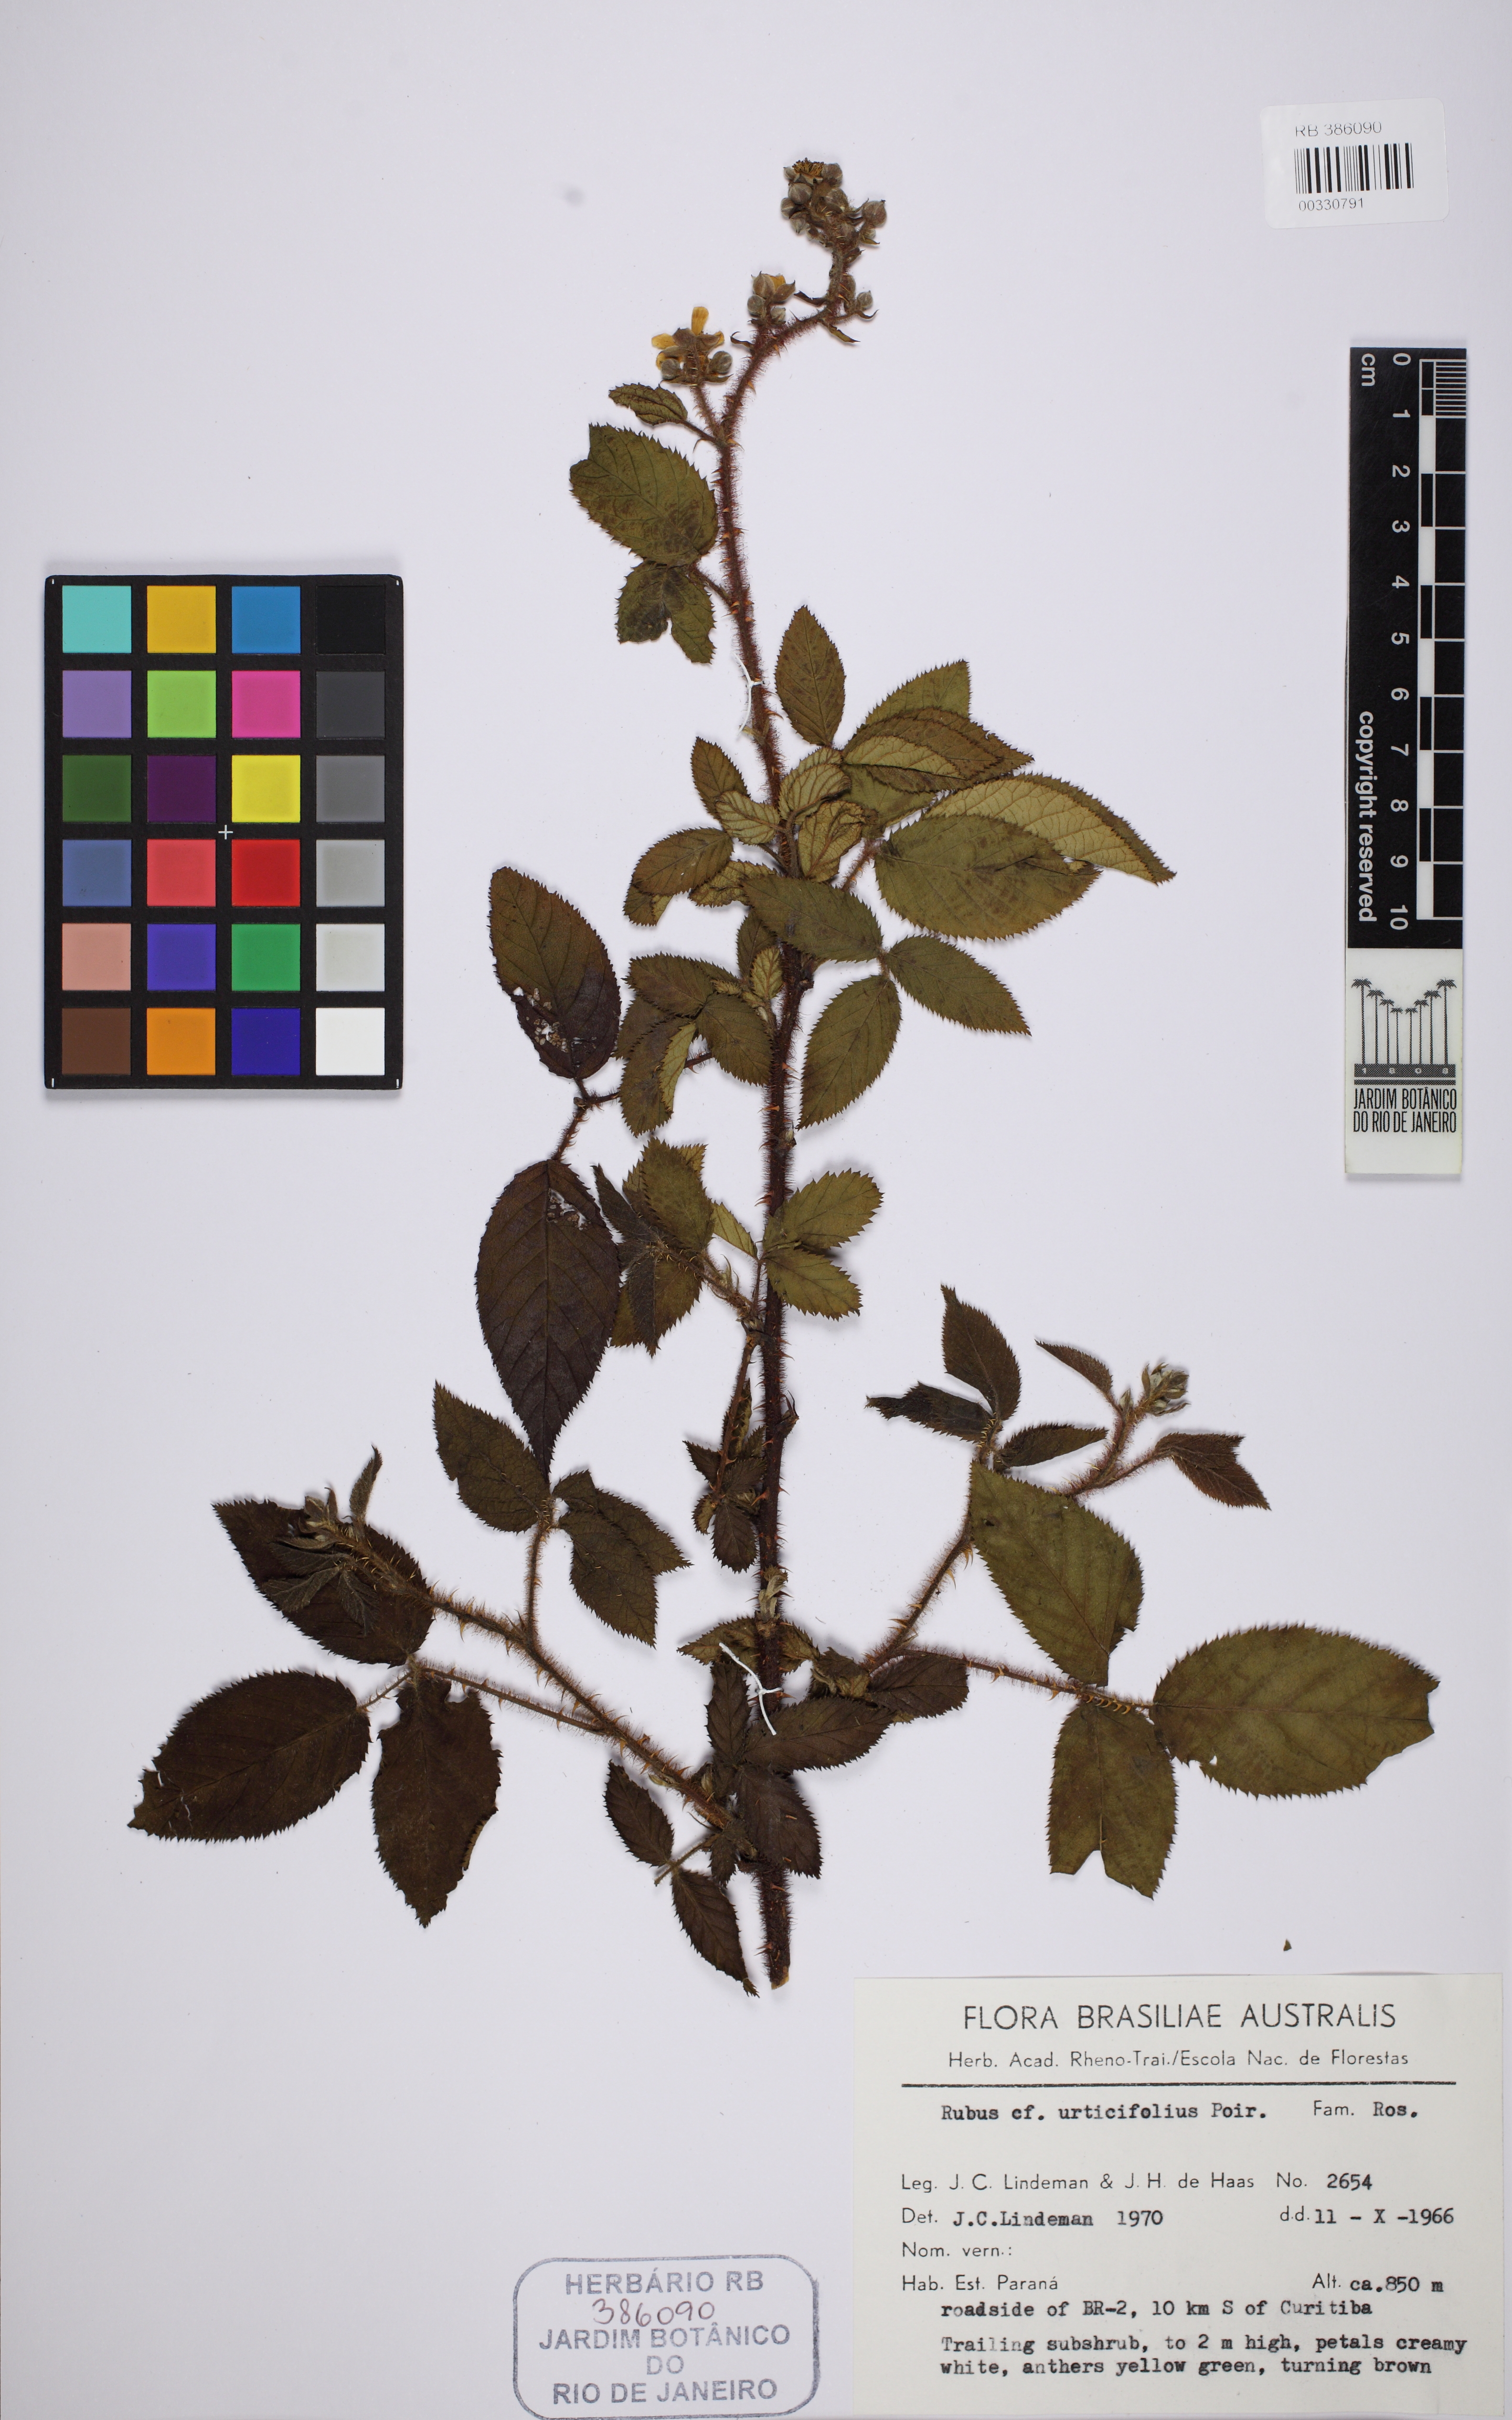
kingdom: Plantae
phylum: Tracheophyta
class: Magnoliopsida
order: Rosales
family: Rosaceae
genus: Rubus
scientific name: Rubus urticifolius
